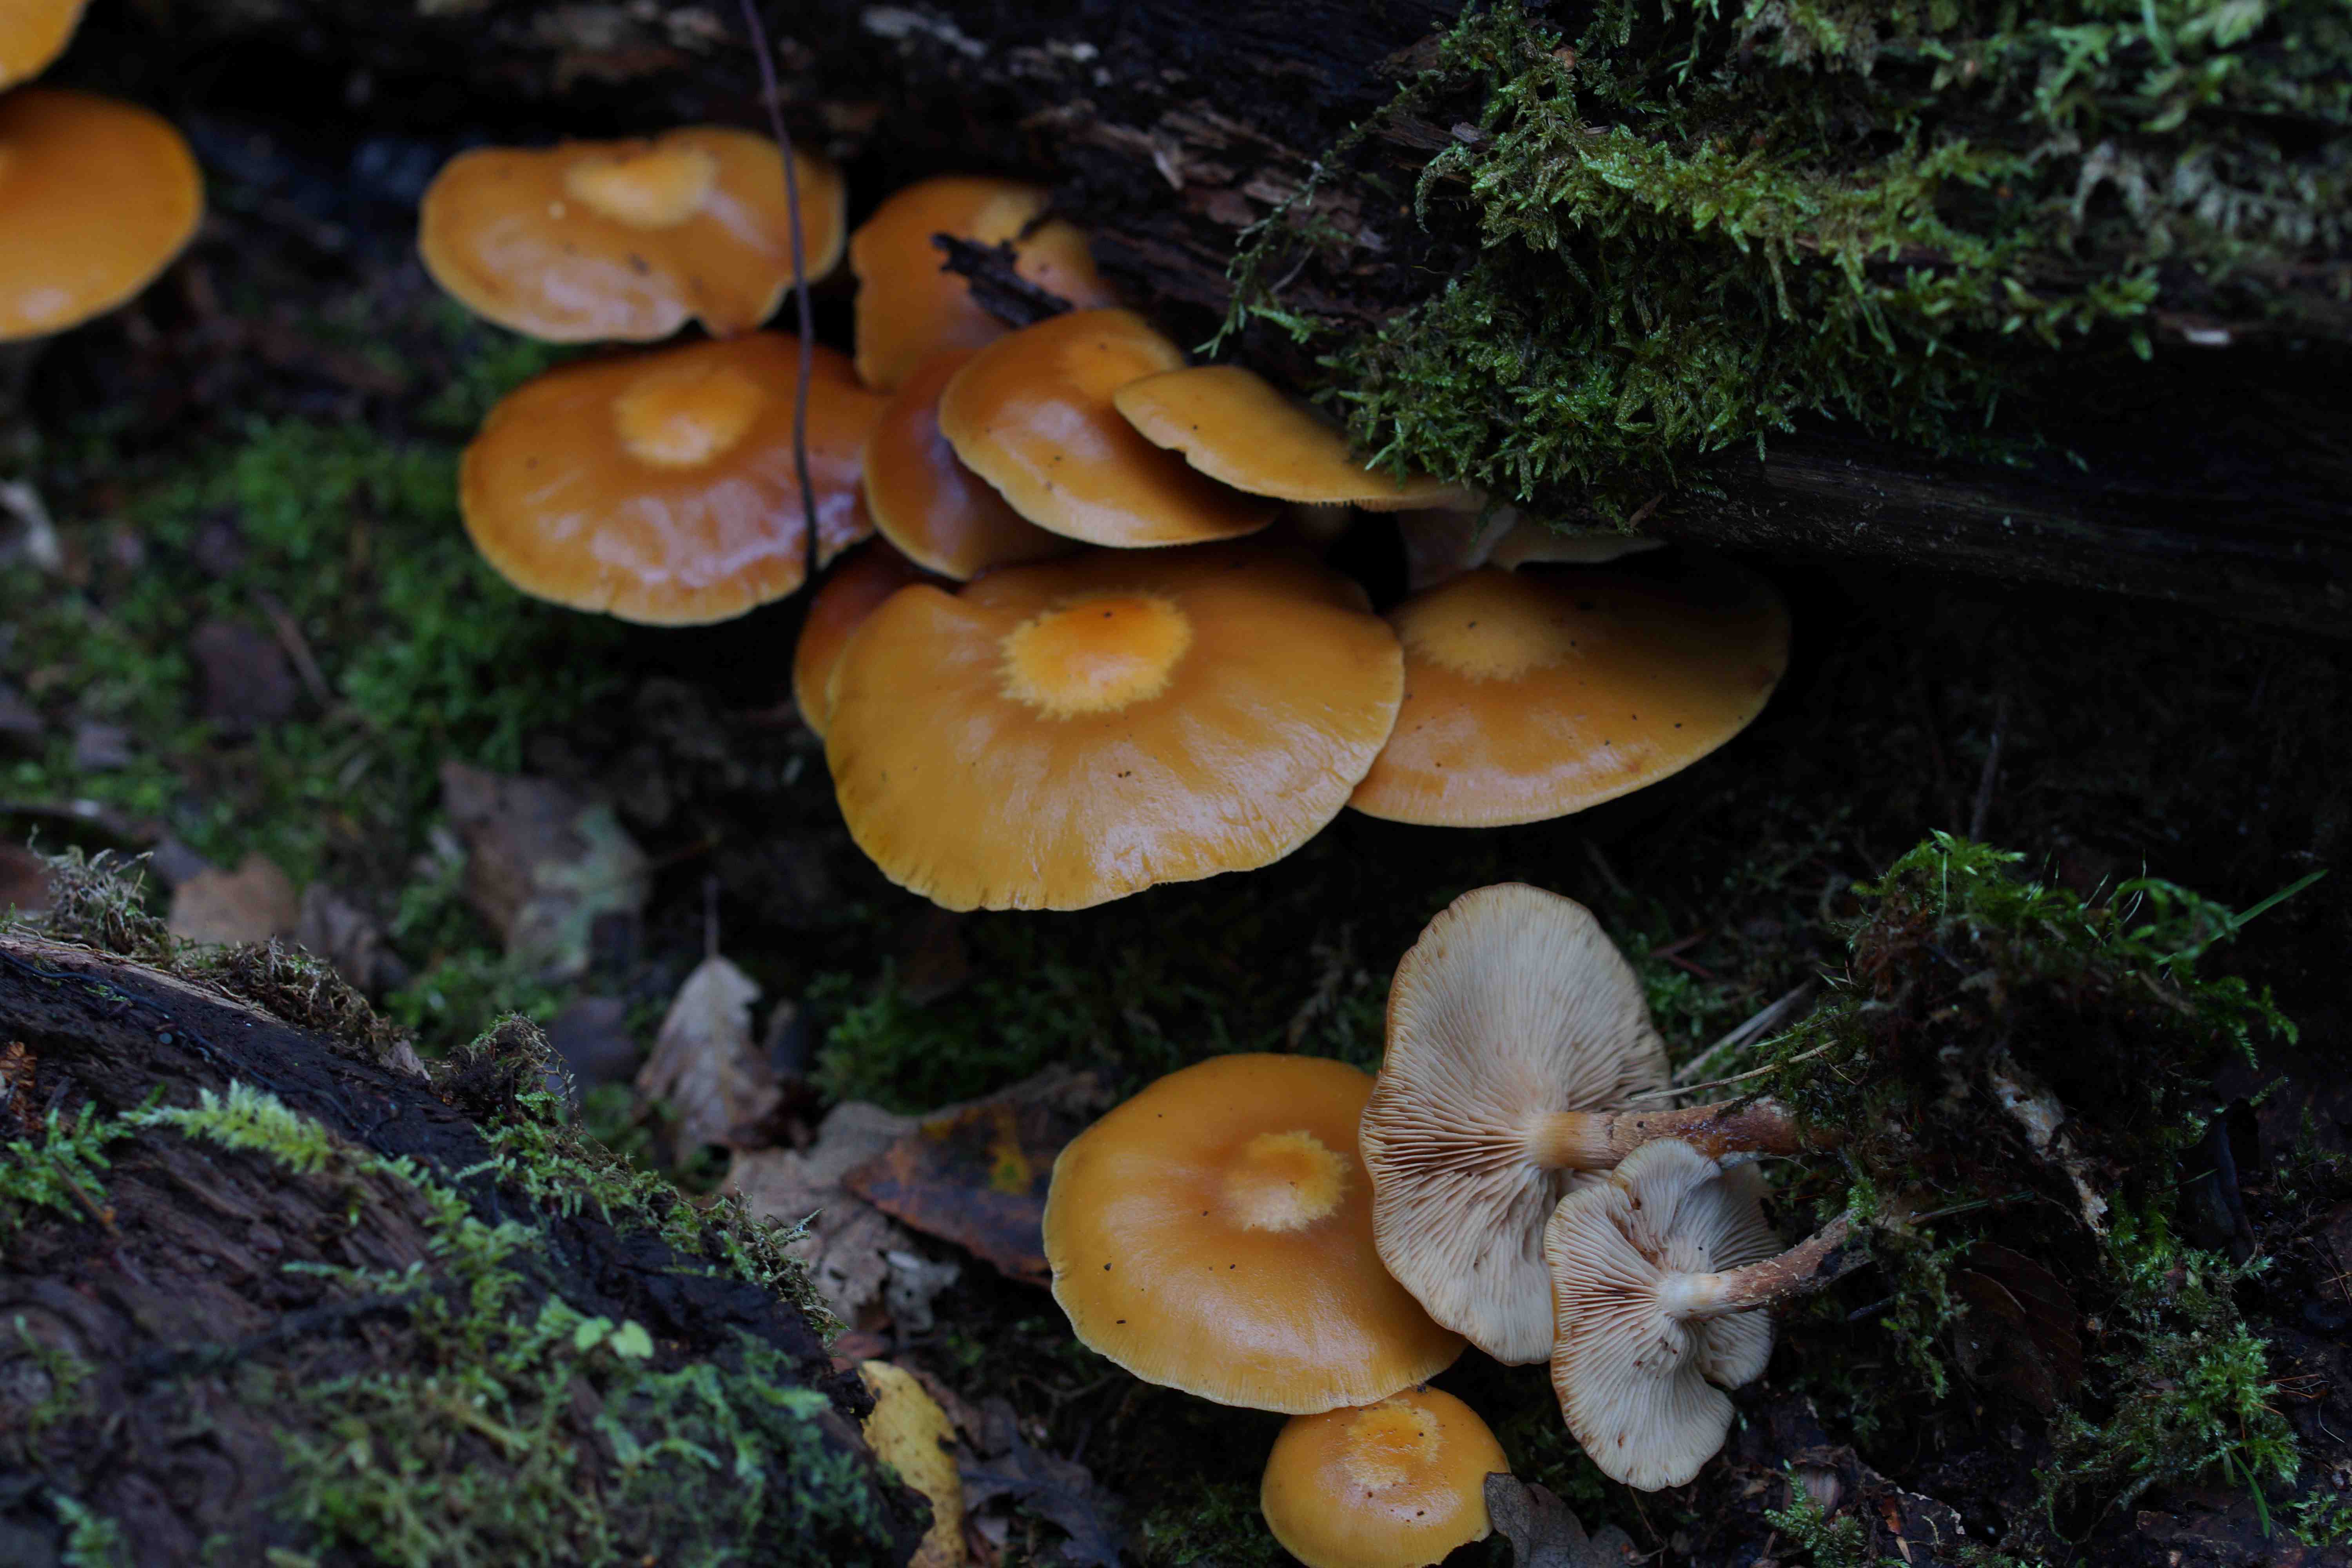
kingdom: Fungi
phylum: Basidiomycota
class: Agaricomycetes
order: Agaricales
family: Strophariaceae
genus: Kuehneromyces
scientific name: Kuehneromyces mutabilis
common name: foranderlig skælhat
